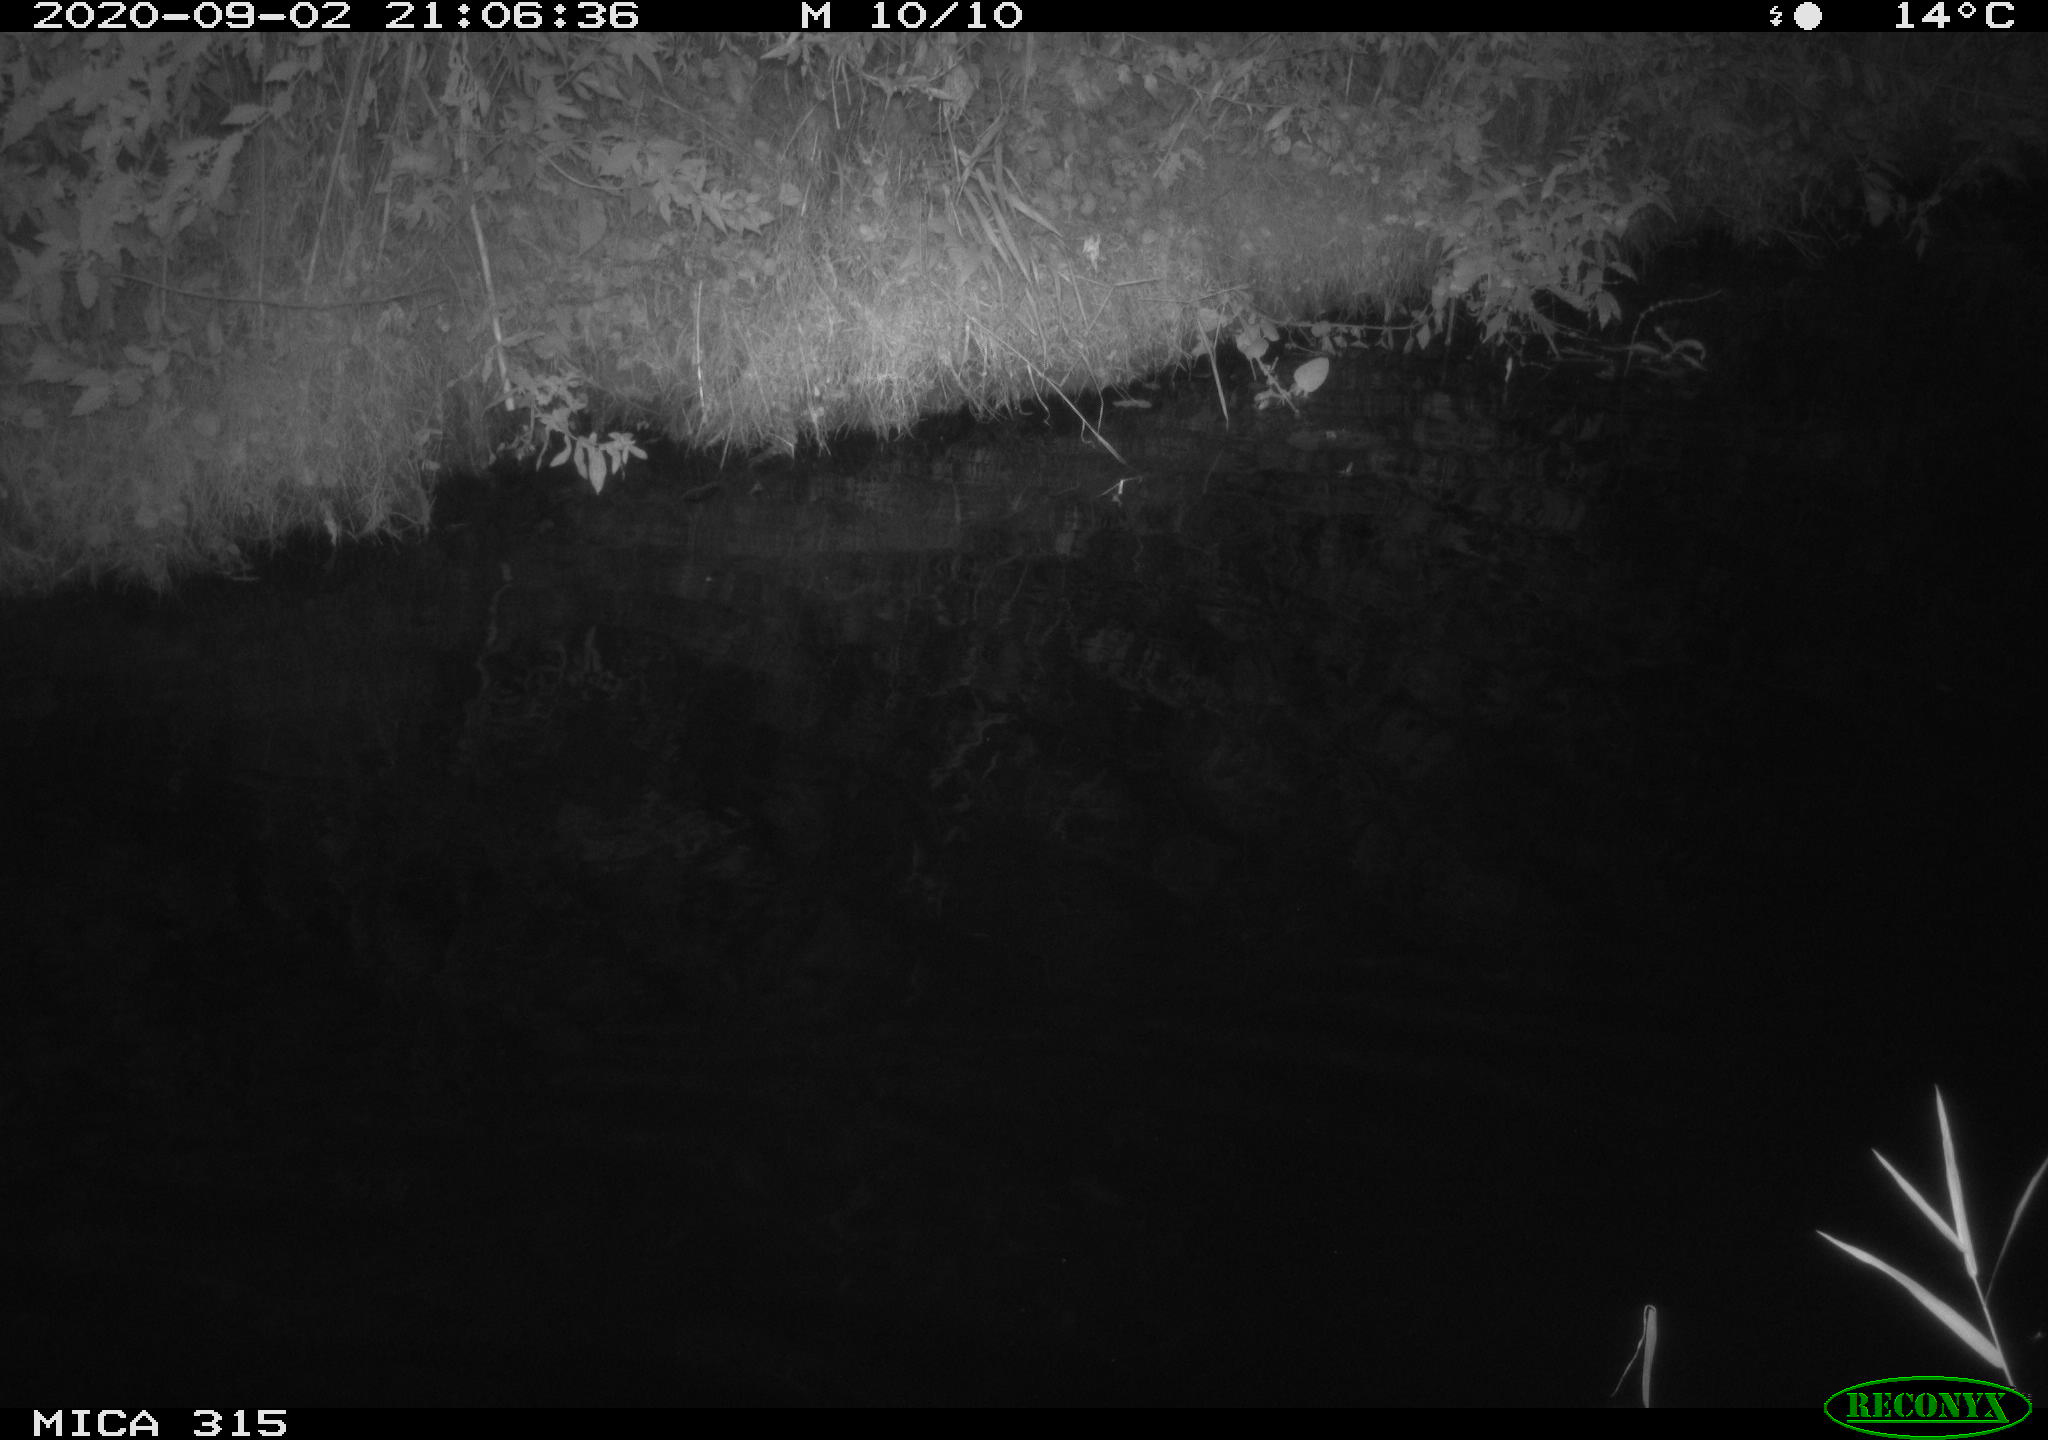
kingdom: Animalia
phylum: Chordata
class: Aves
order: Anseriformes
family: Anatidae
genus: Anas
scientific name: Anas platyrhynchos
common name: Mallard
